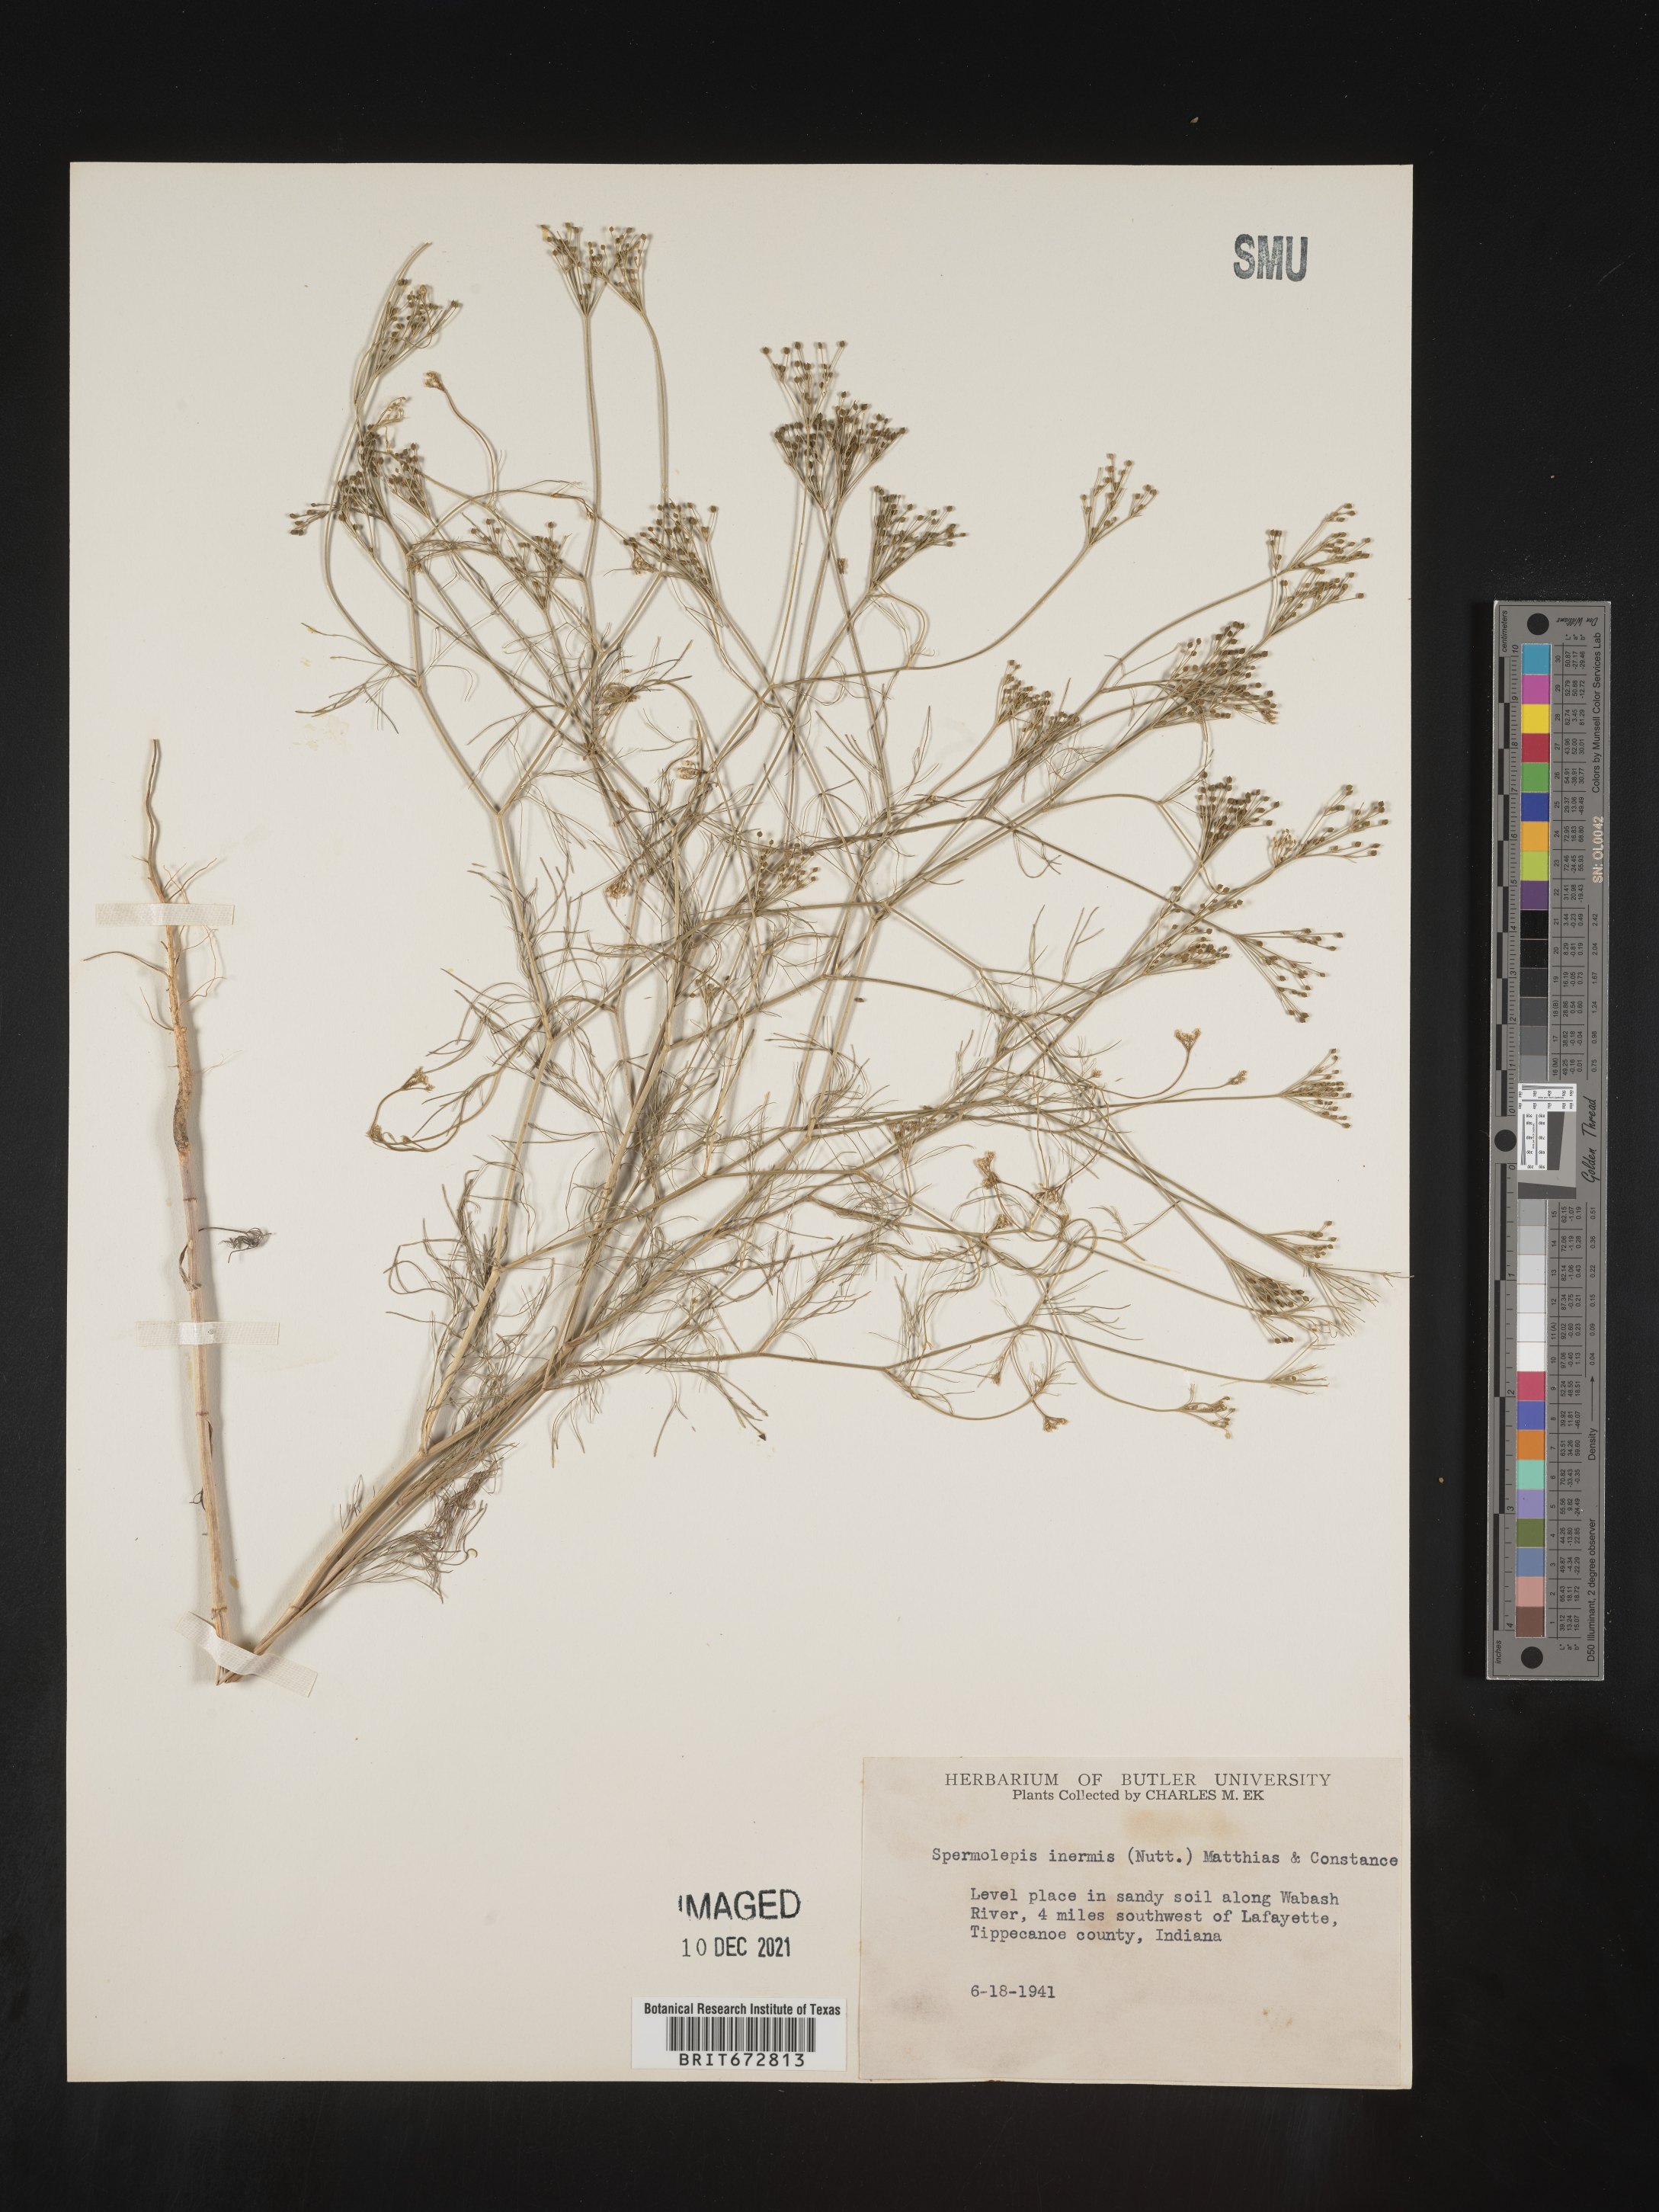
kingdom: Plantae
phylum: Tracheophyta
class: Magnoliopsida
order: Apiales
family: Apiaceae
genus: Spermolepis
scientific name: Spermolepis inermis
